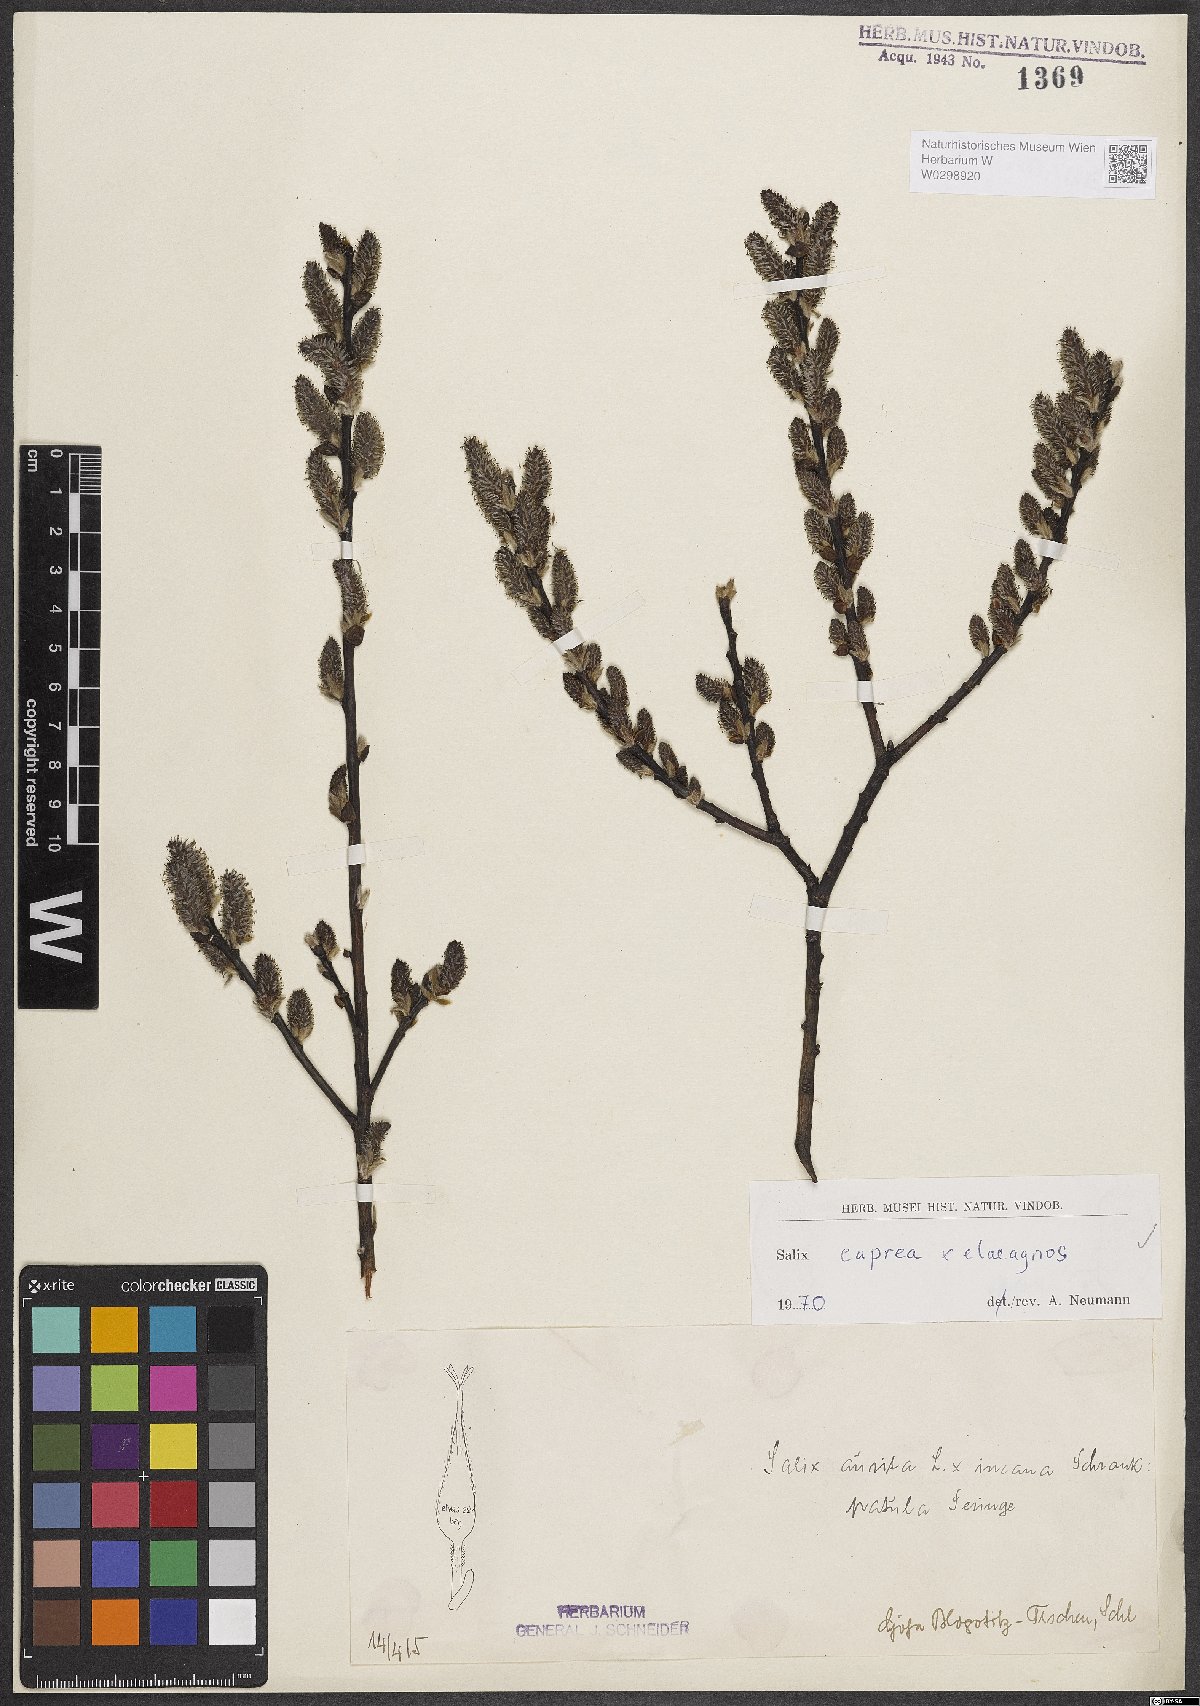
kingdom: Plantae
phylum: Tracheophyta
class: Magnoliopsida
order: Malpighiales
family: Salicaceae
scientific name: Salicaceae
